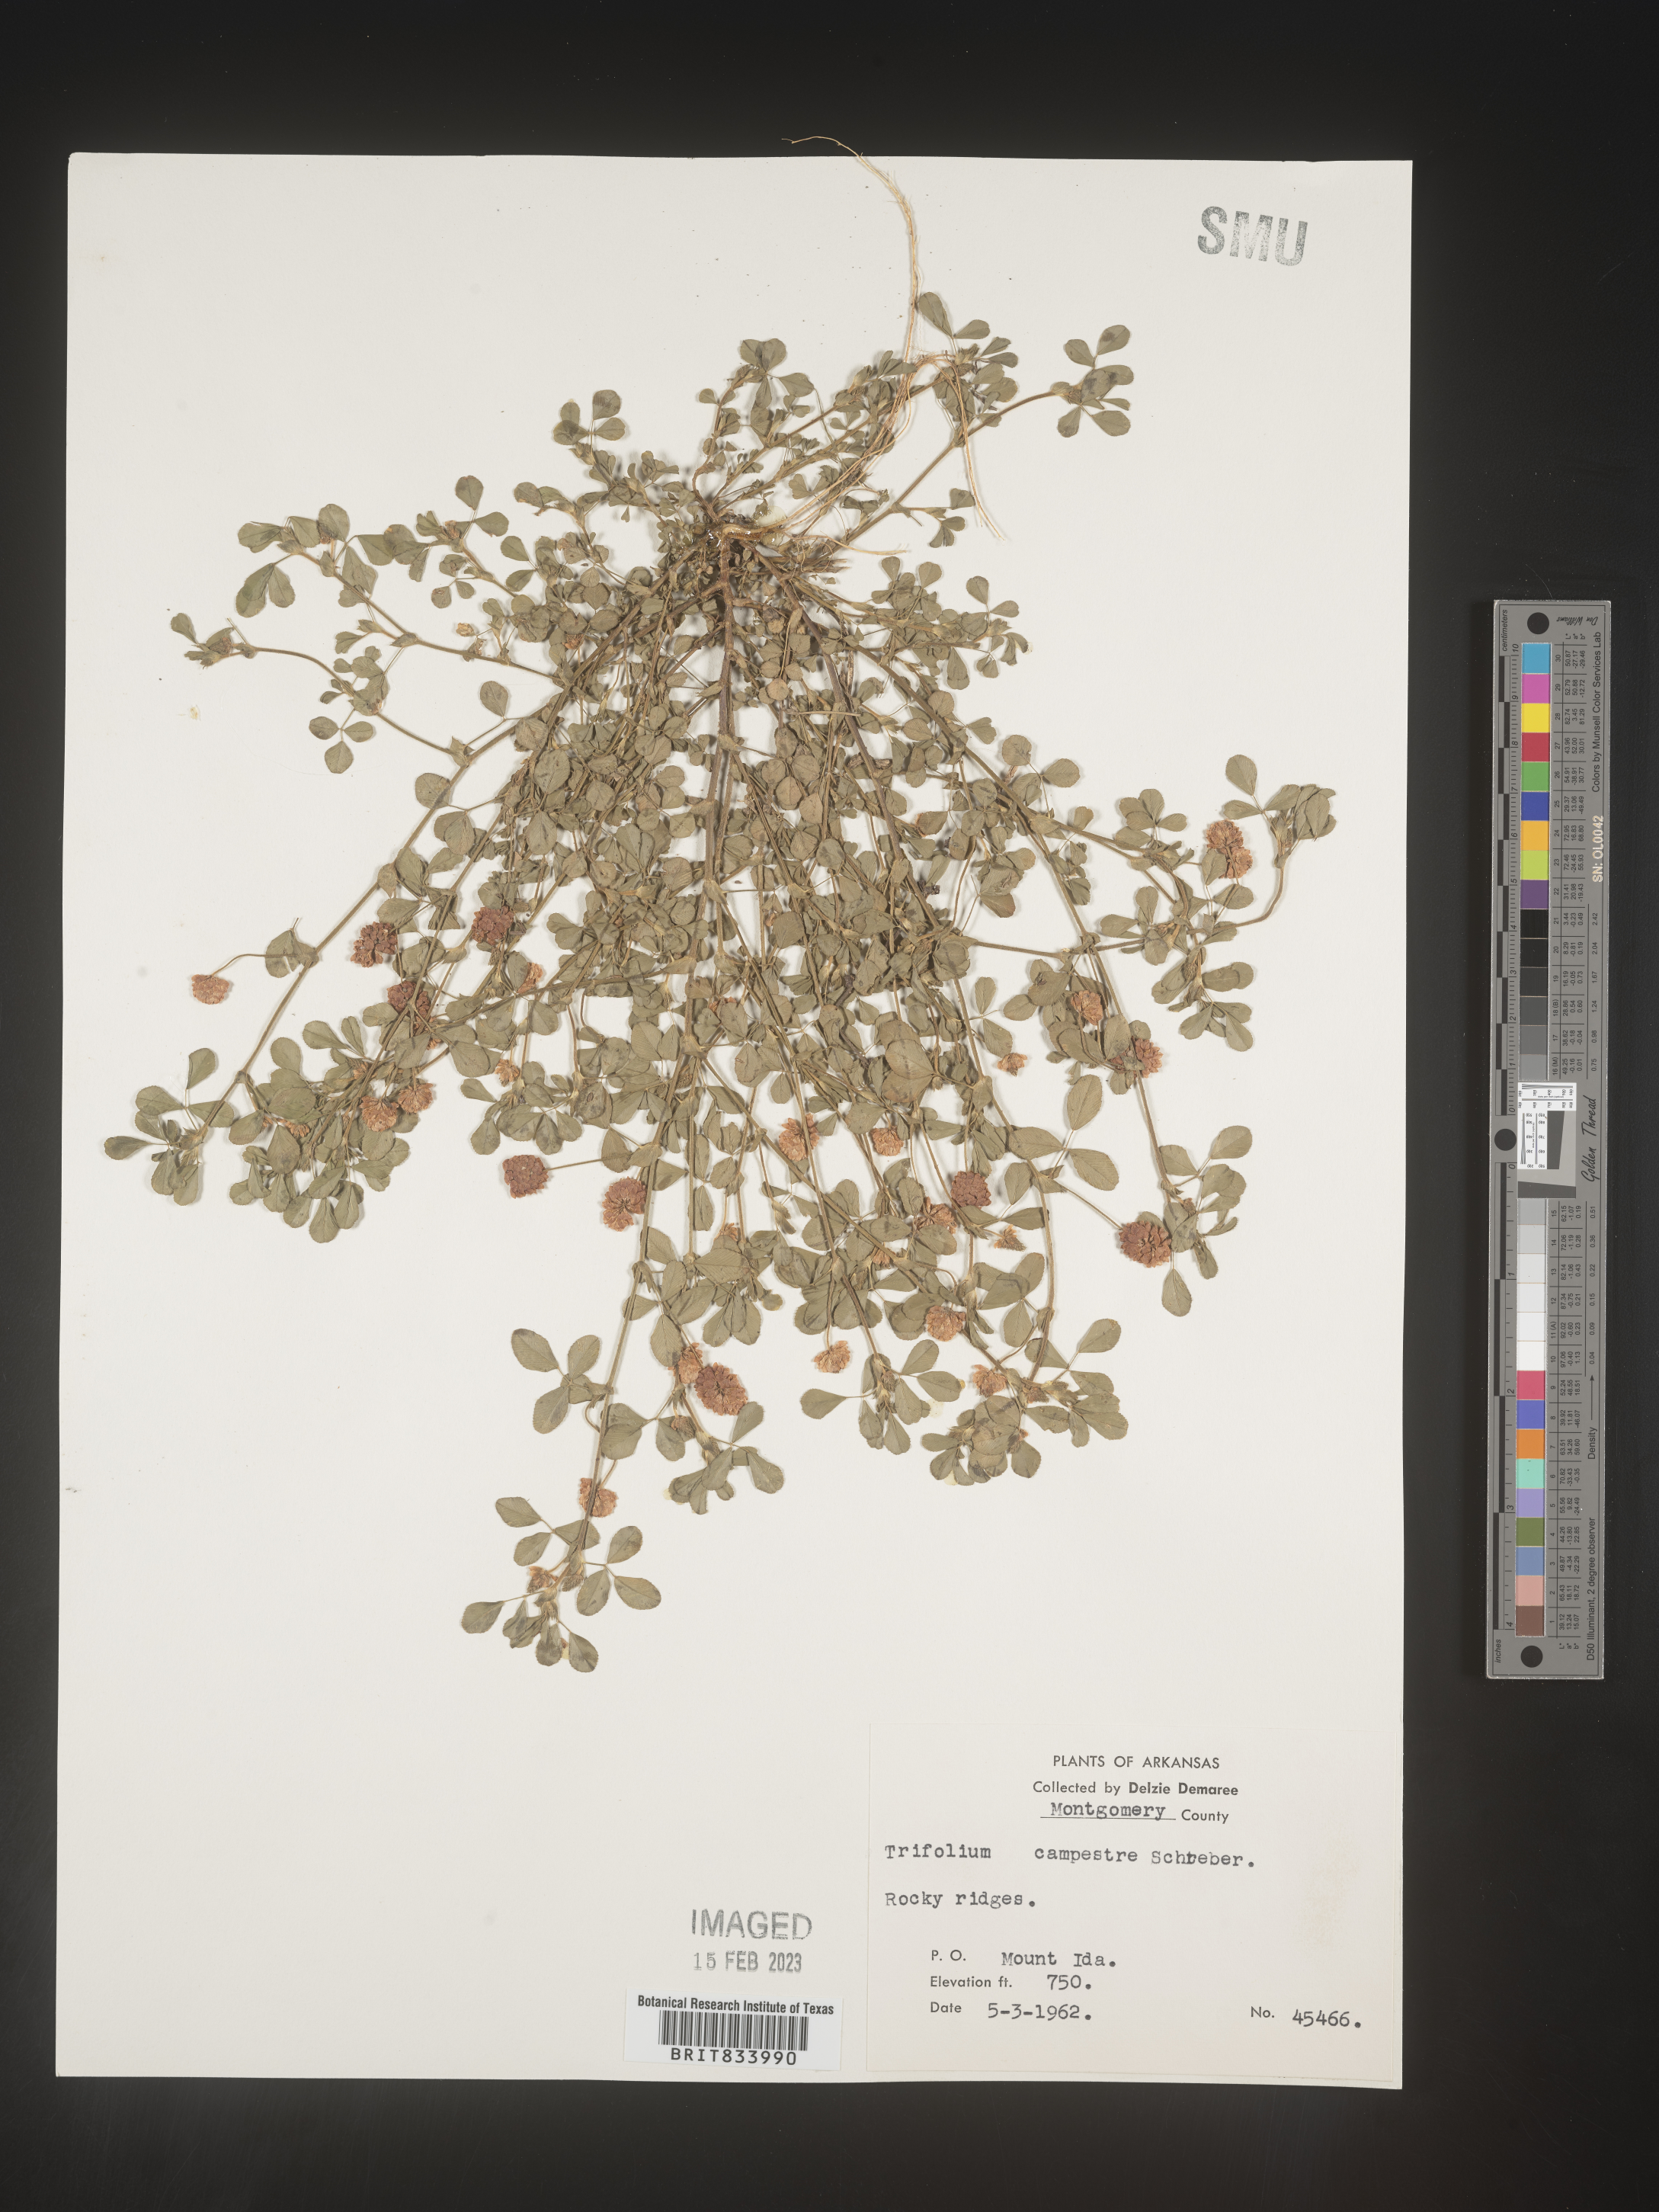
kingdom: Plantae
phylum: Tracheophyta
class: Magnoliopsida
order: Fabales
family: Fabaceae
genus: Trifolium
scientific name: Trifolium campestre
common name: Field clover
